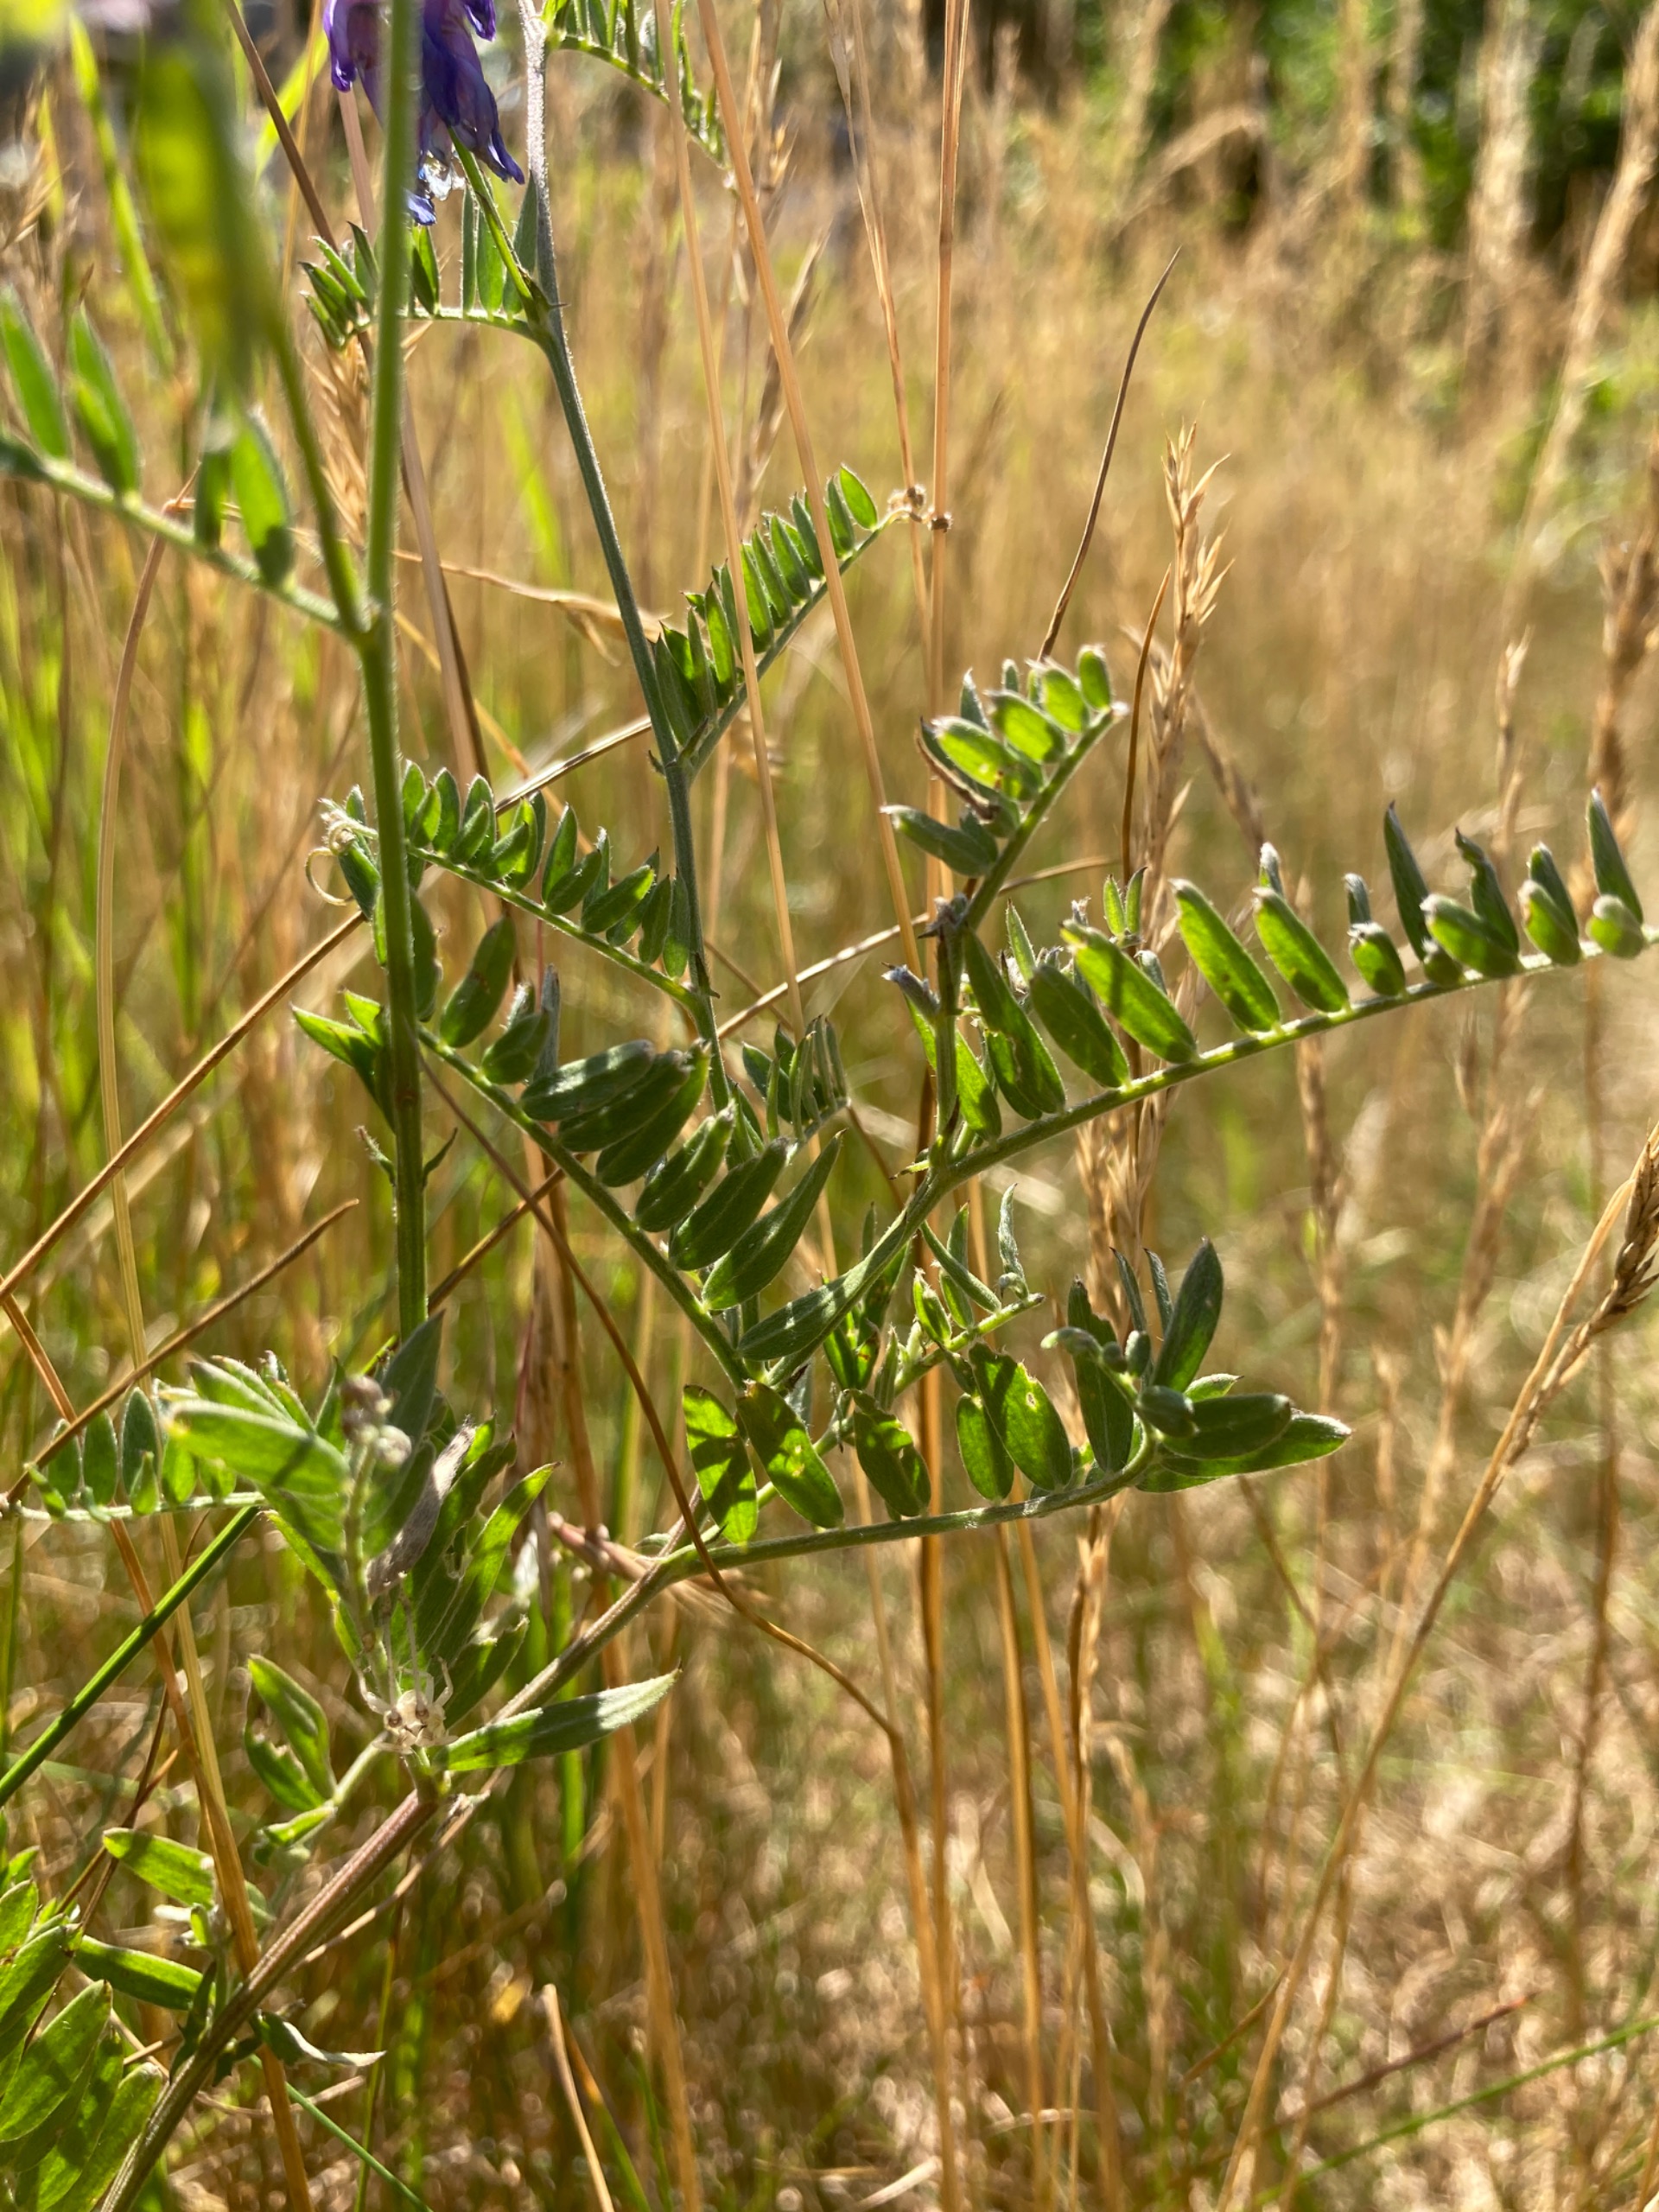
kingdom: Plantae
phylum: Tracheophyta
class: Magnoliopsida
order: Fabales
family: Fabaceae
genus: Vicia
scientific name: Vicia cracca
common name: Muse-vikke
